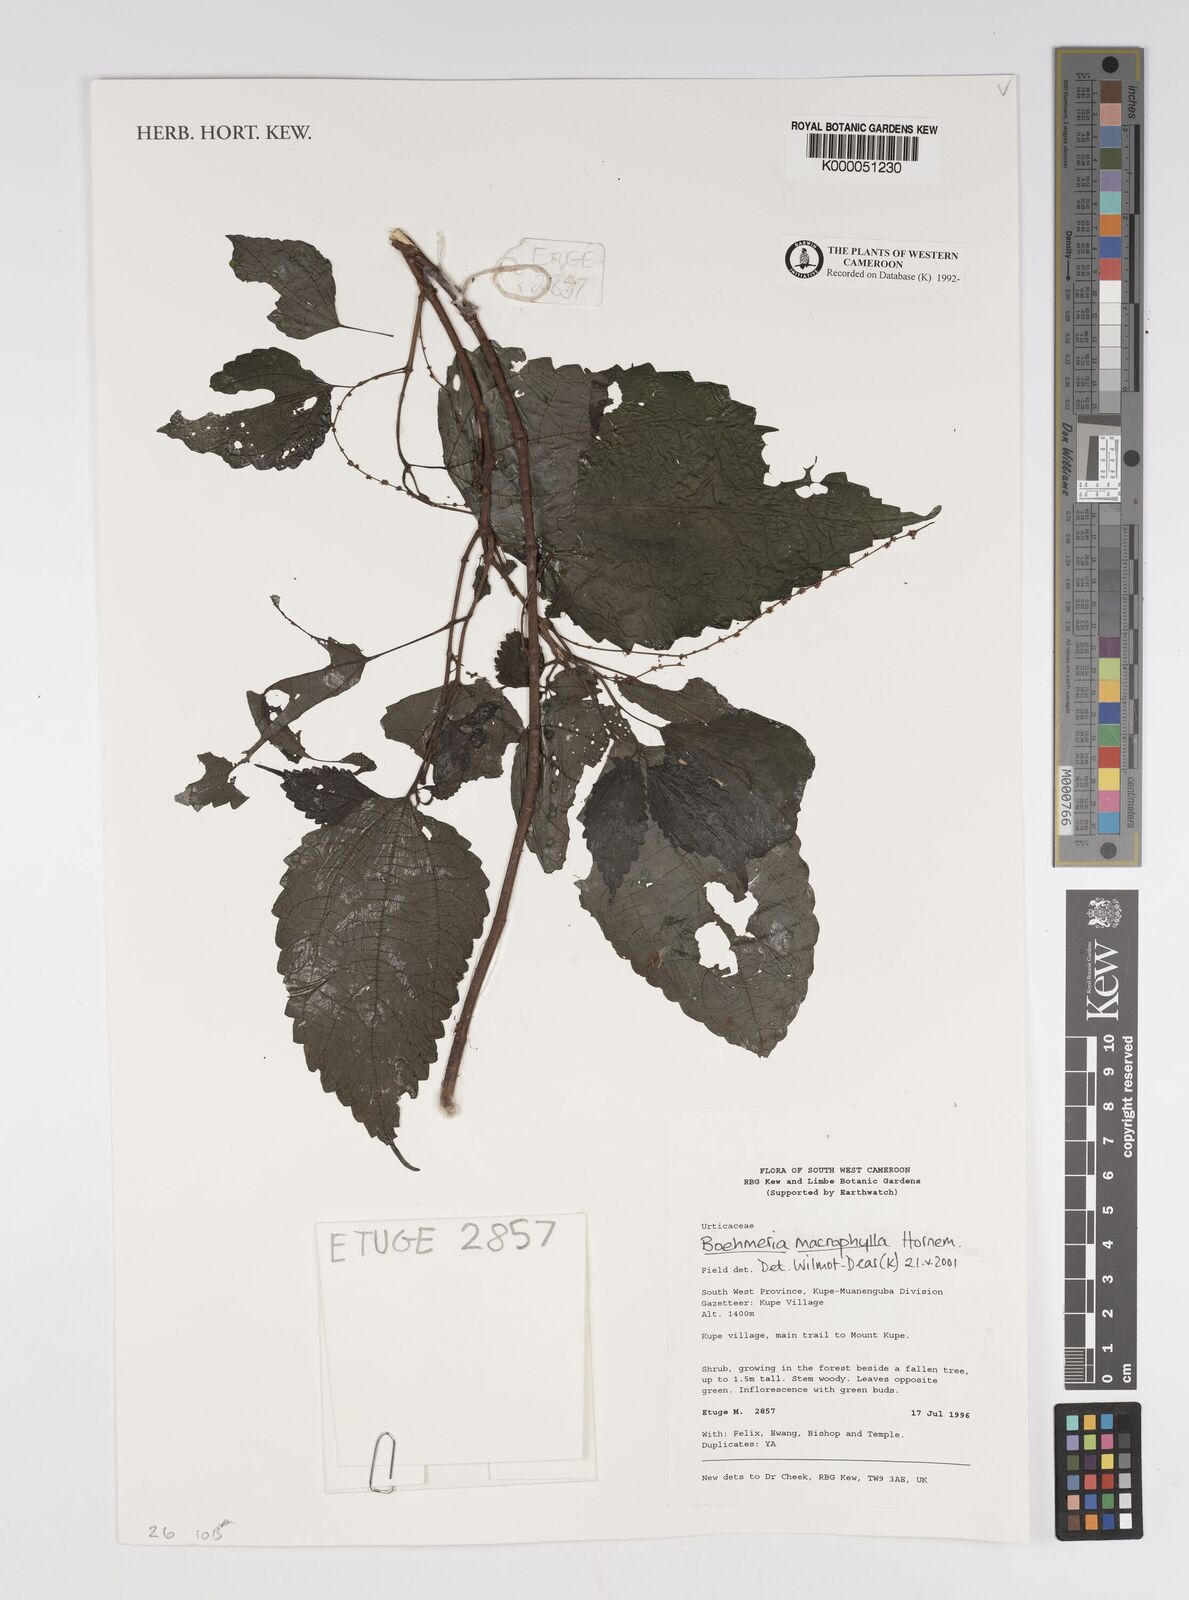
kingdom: Plantae
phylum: Tracheophyta
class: Magnoliopsida
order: Rosales
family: Urticaceae
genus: Boehmeria
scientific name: Boehmeria virgata
